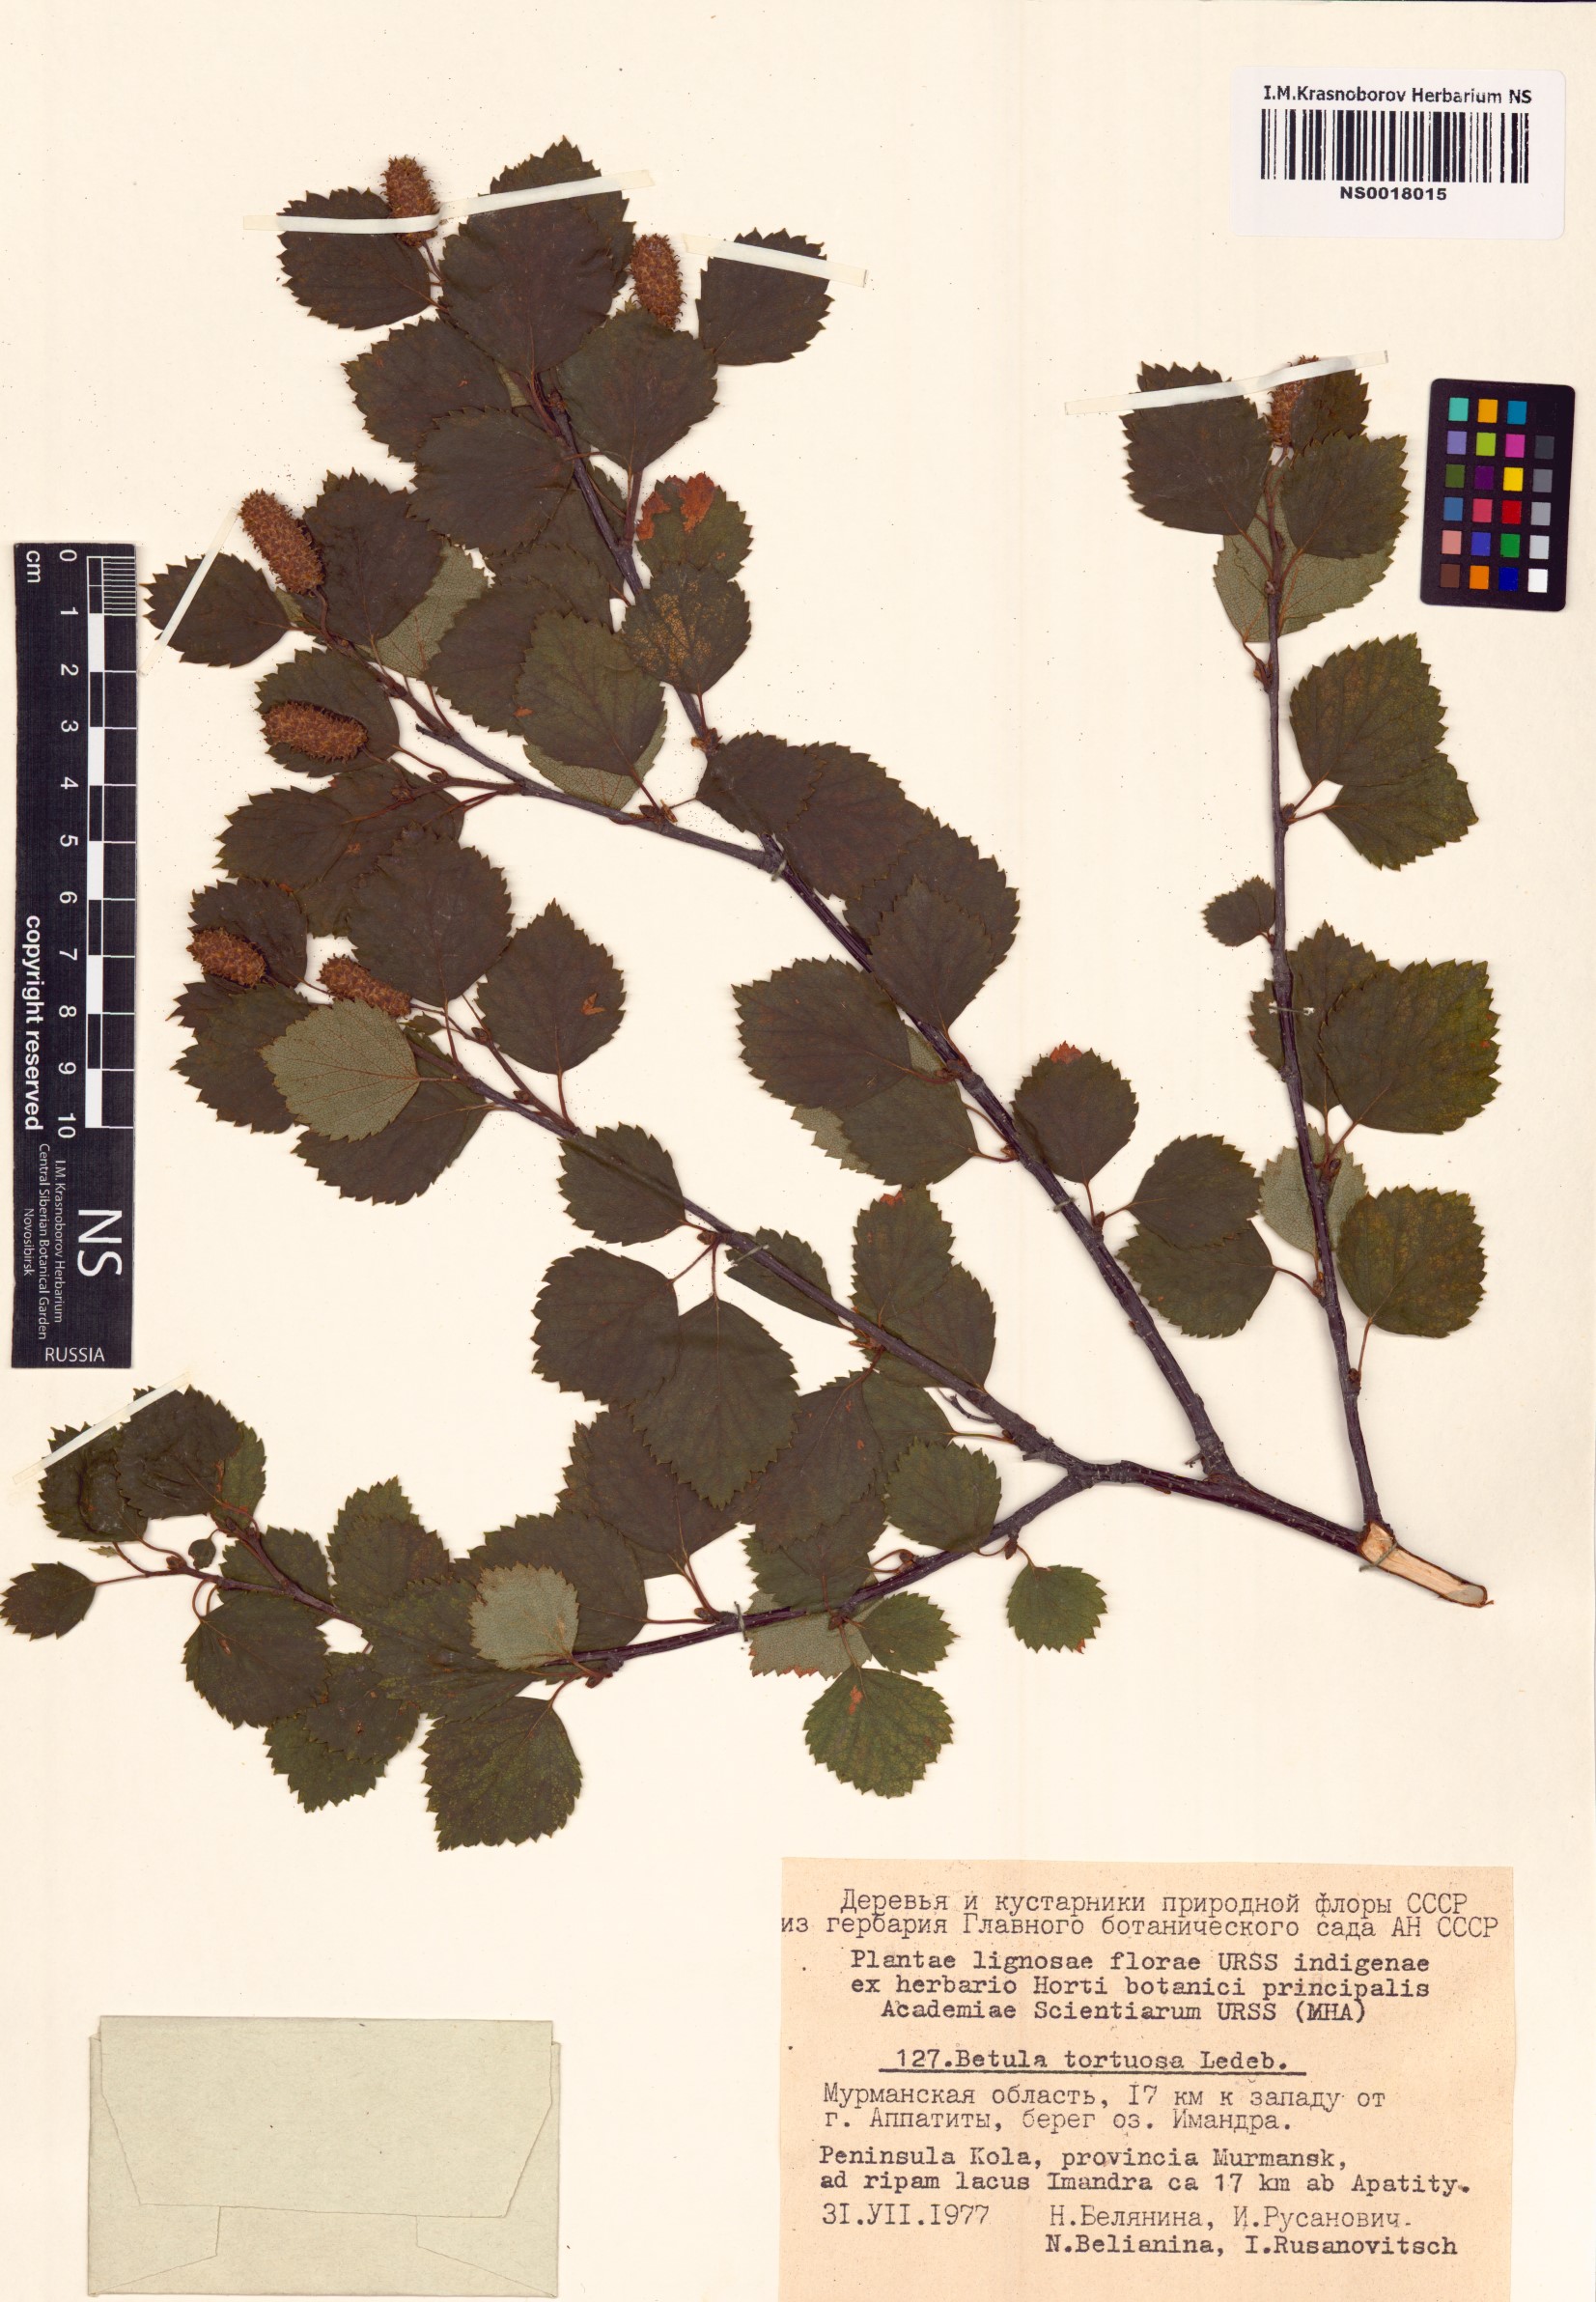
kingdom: Plantae
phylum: Tracheophyta
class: Magnoliopsida
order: Fagales
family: Betulaceae
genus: Betula
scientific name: Betula pubescens
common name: Downy birch
